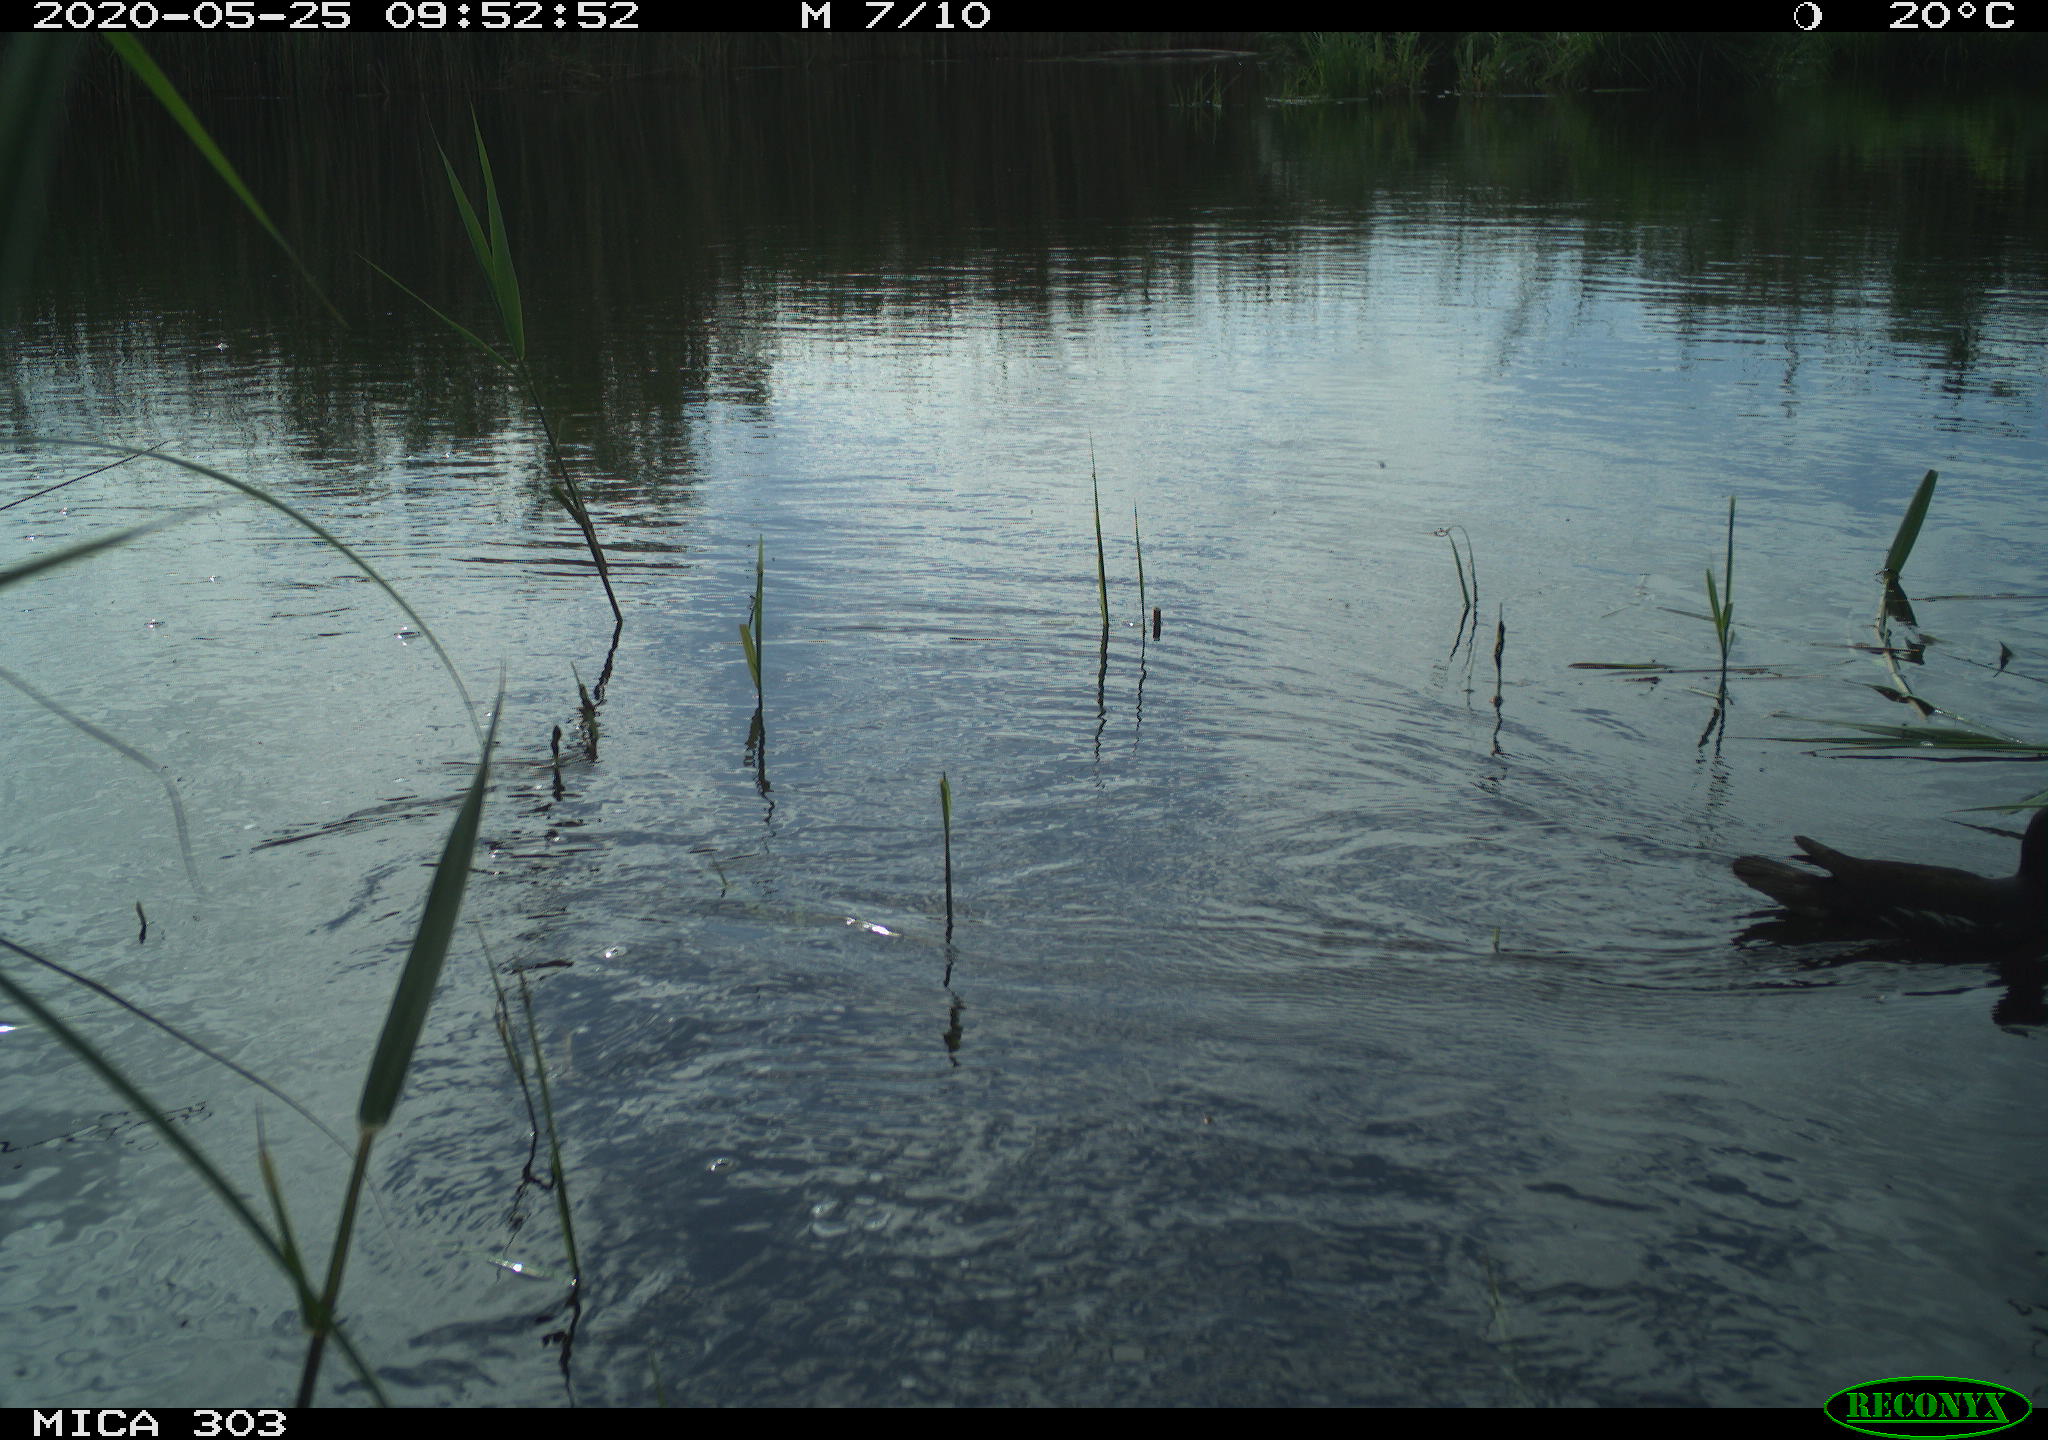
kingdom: Animalia
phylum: Chordata
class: Aves
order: Gruiformes
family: Rallidae
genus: Gallinula
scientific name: Gallinula chloropus
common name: Common moorhen
